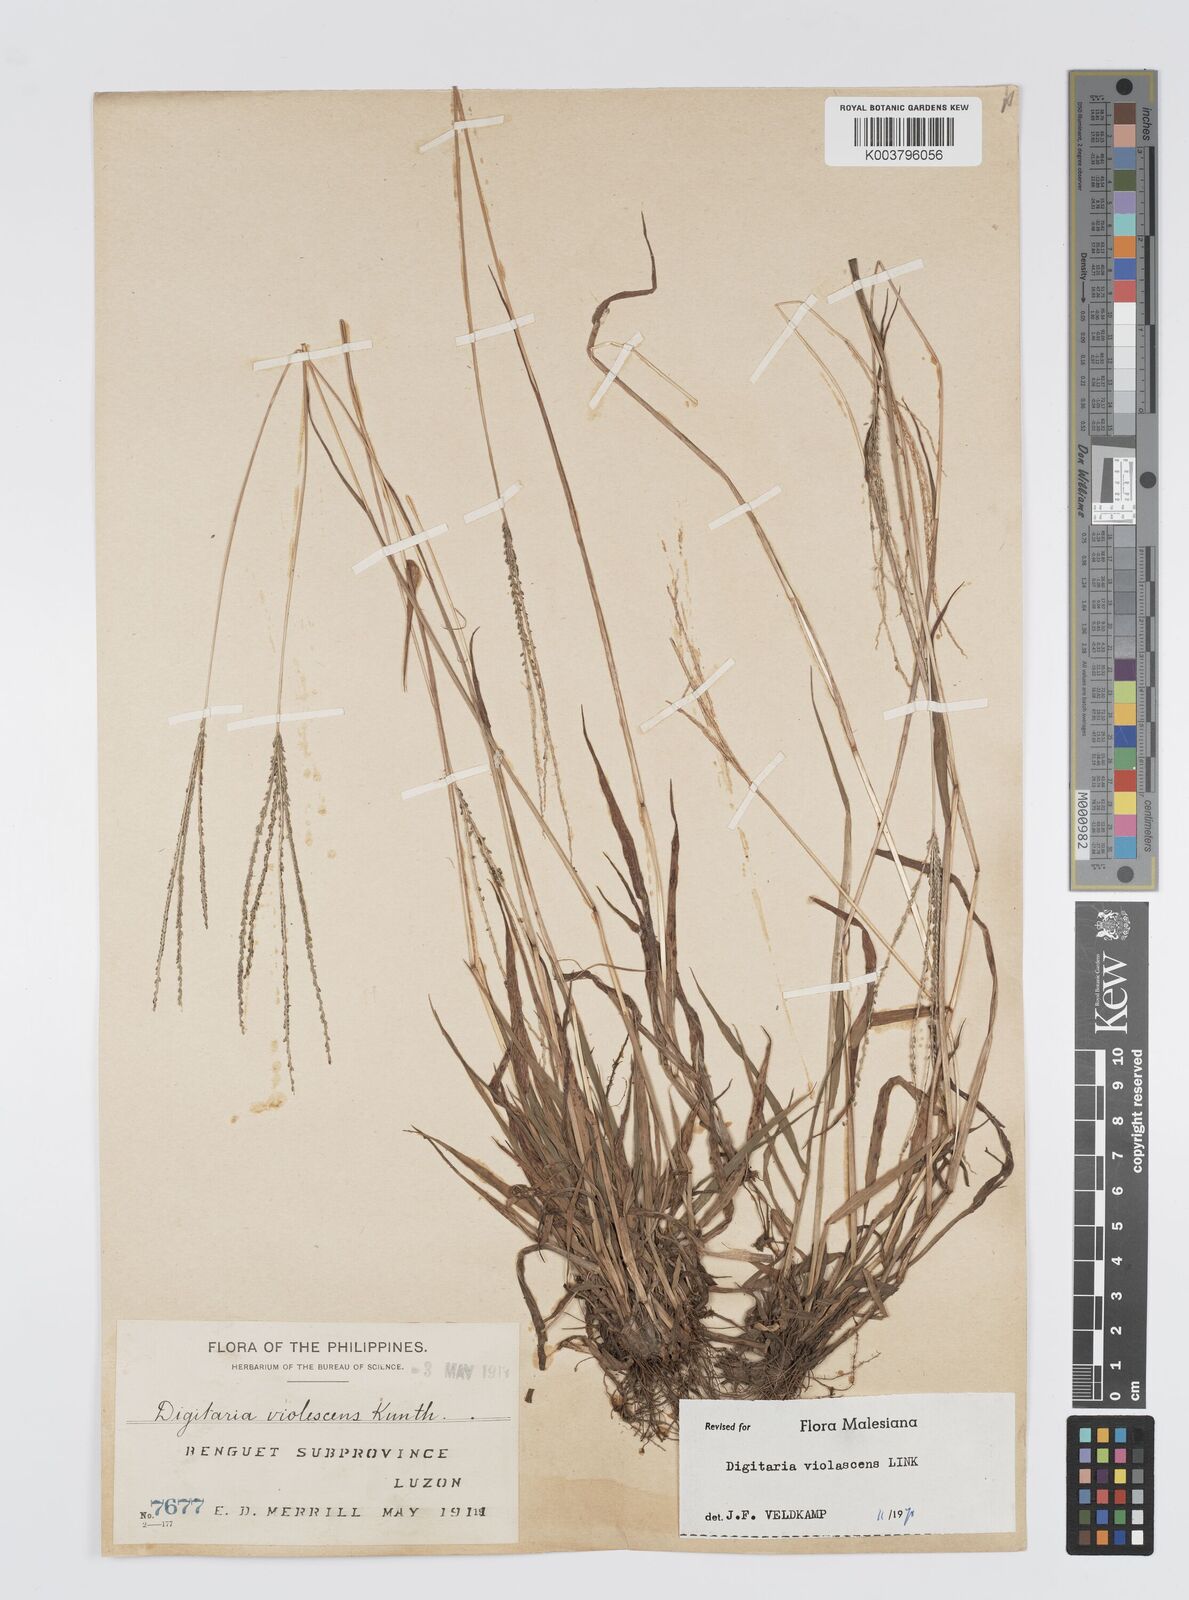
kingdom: Plantae
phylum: Tracheophyta
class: Liliopsida
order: Poales
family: Poaceae
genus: Digitaria
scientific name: Digitaria violascens
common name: Violet crabgrass
